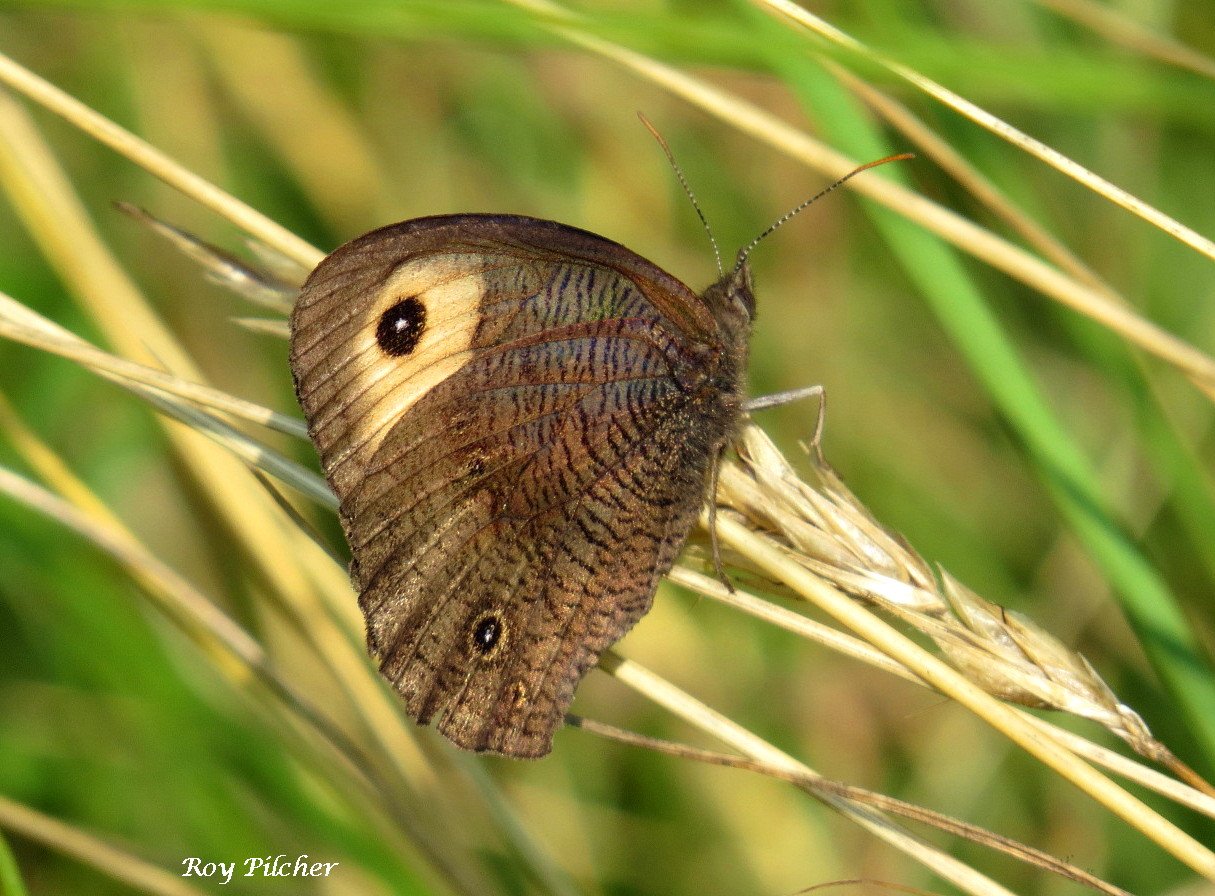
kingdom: Animalia
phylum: Arthropoda
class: Insecta
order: Lepidoptera
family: Nymphalidae
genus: Cercyonis
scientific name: Cercyonis pegala
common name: Common Wood-Nymph
